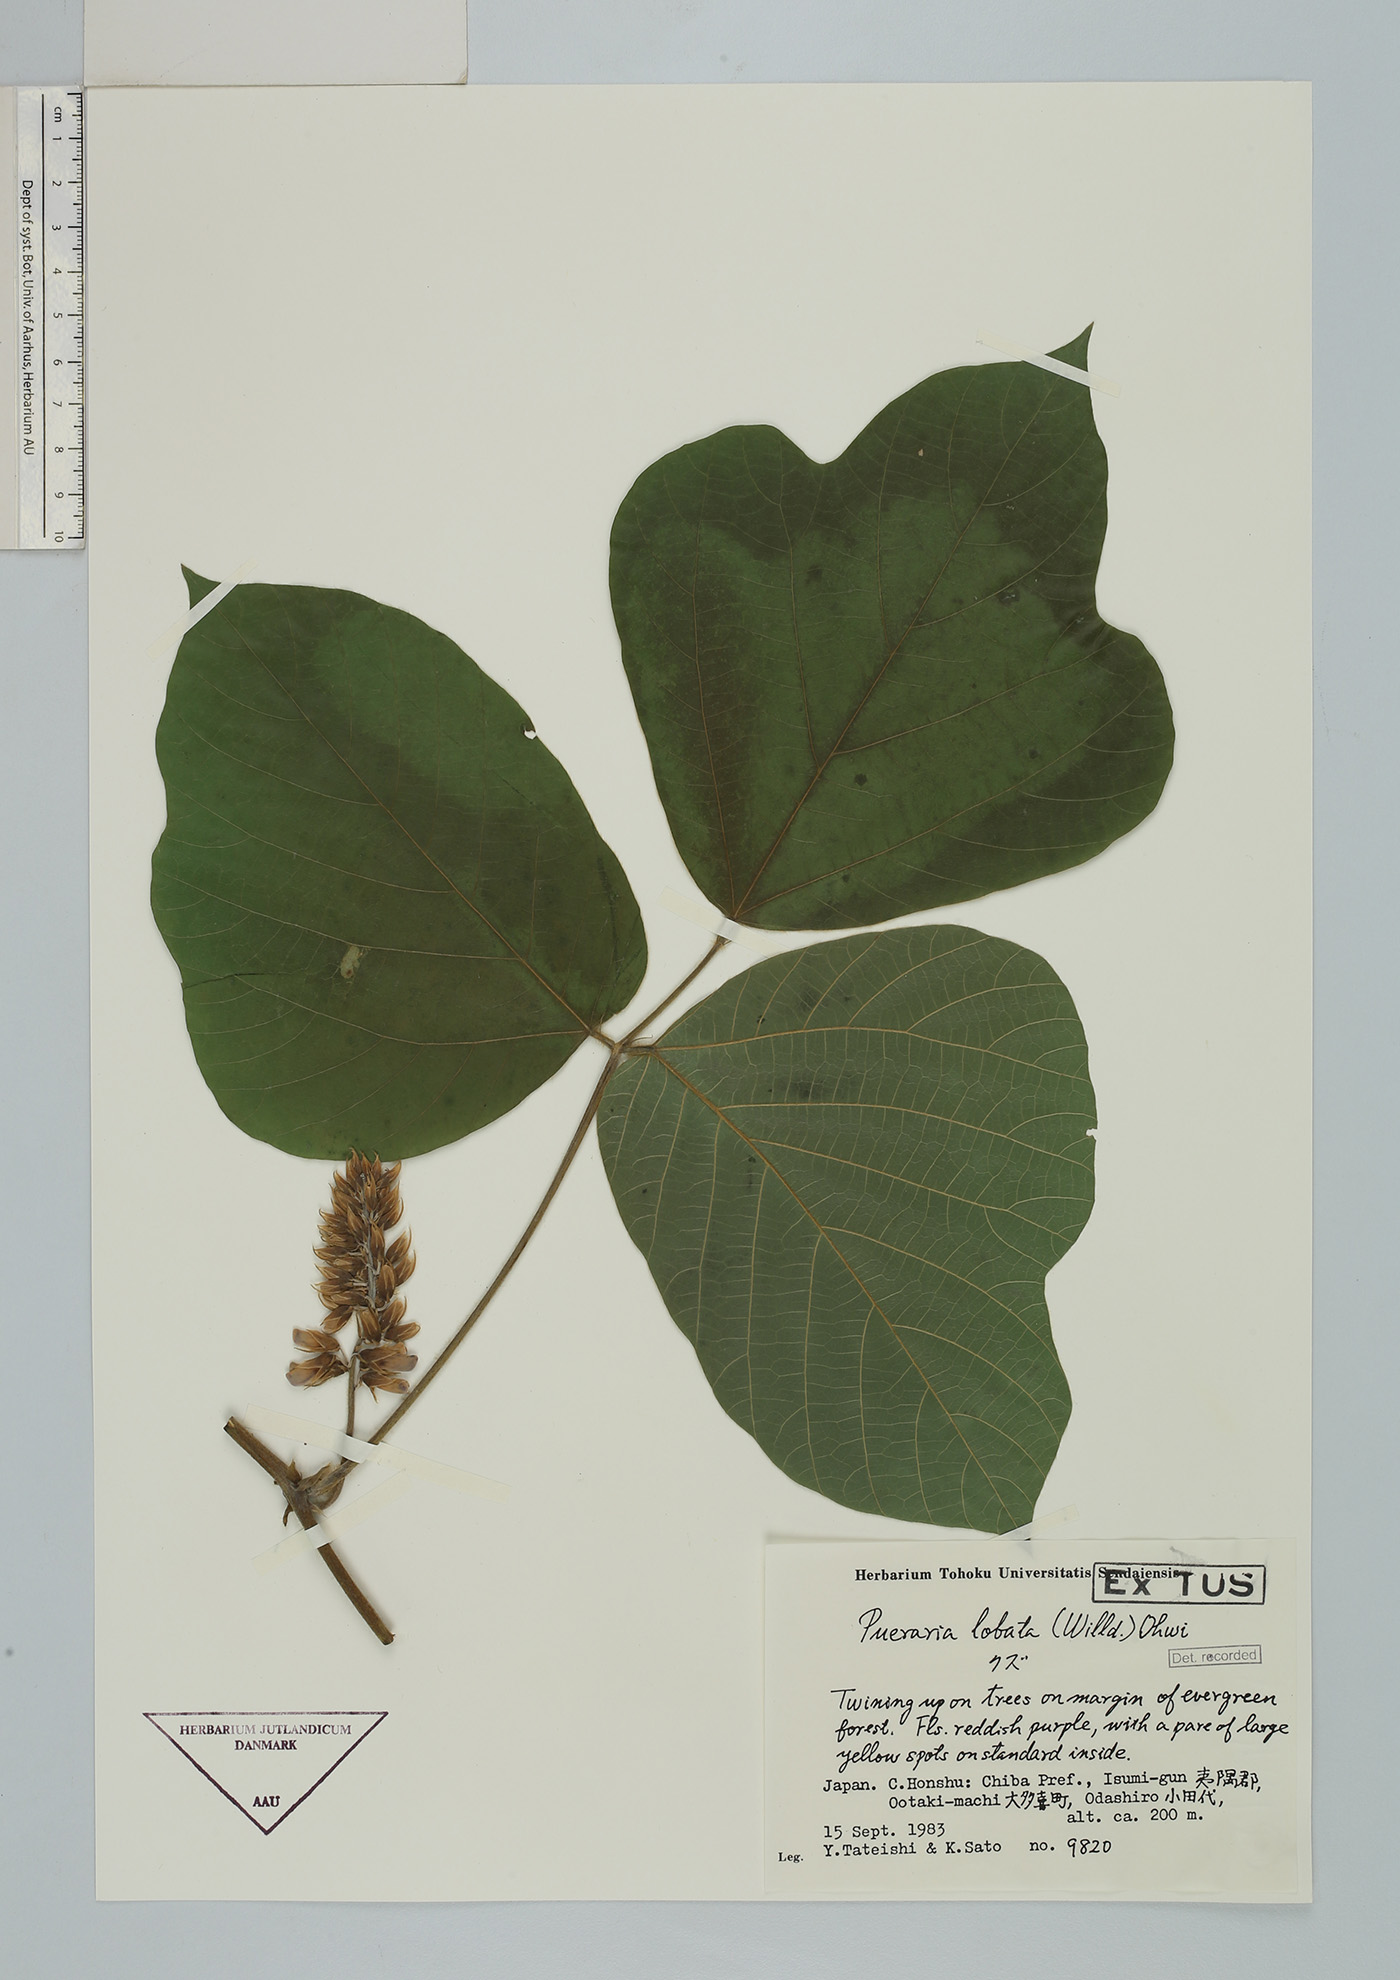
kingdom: Plantae
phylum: Tracheophyta
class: Magnoliopsida
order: Fabales
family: Fabaceae
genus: Pueraria
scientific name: Pueraria montana
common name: Kudzu
